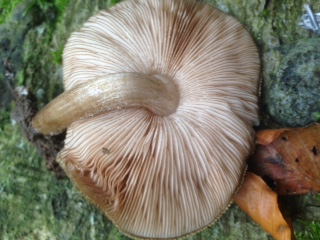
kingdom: Fungi
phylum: Basidiomycota
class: Agaricomycetes
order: Agaricales
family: Pluteaceae
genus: Pluteus
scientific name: Pluteus umbrosus
